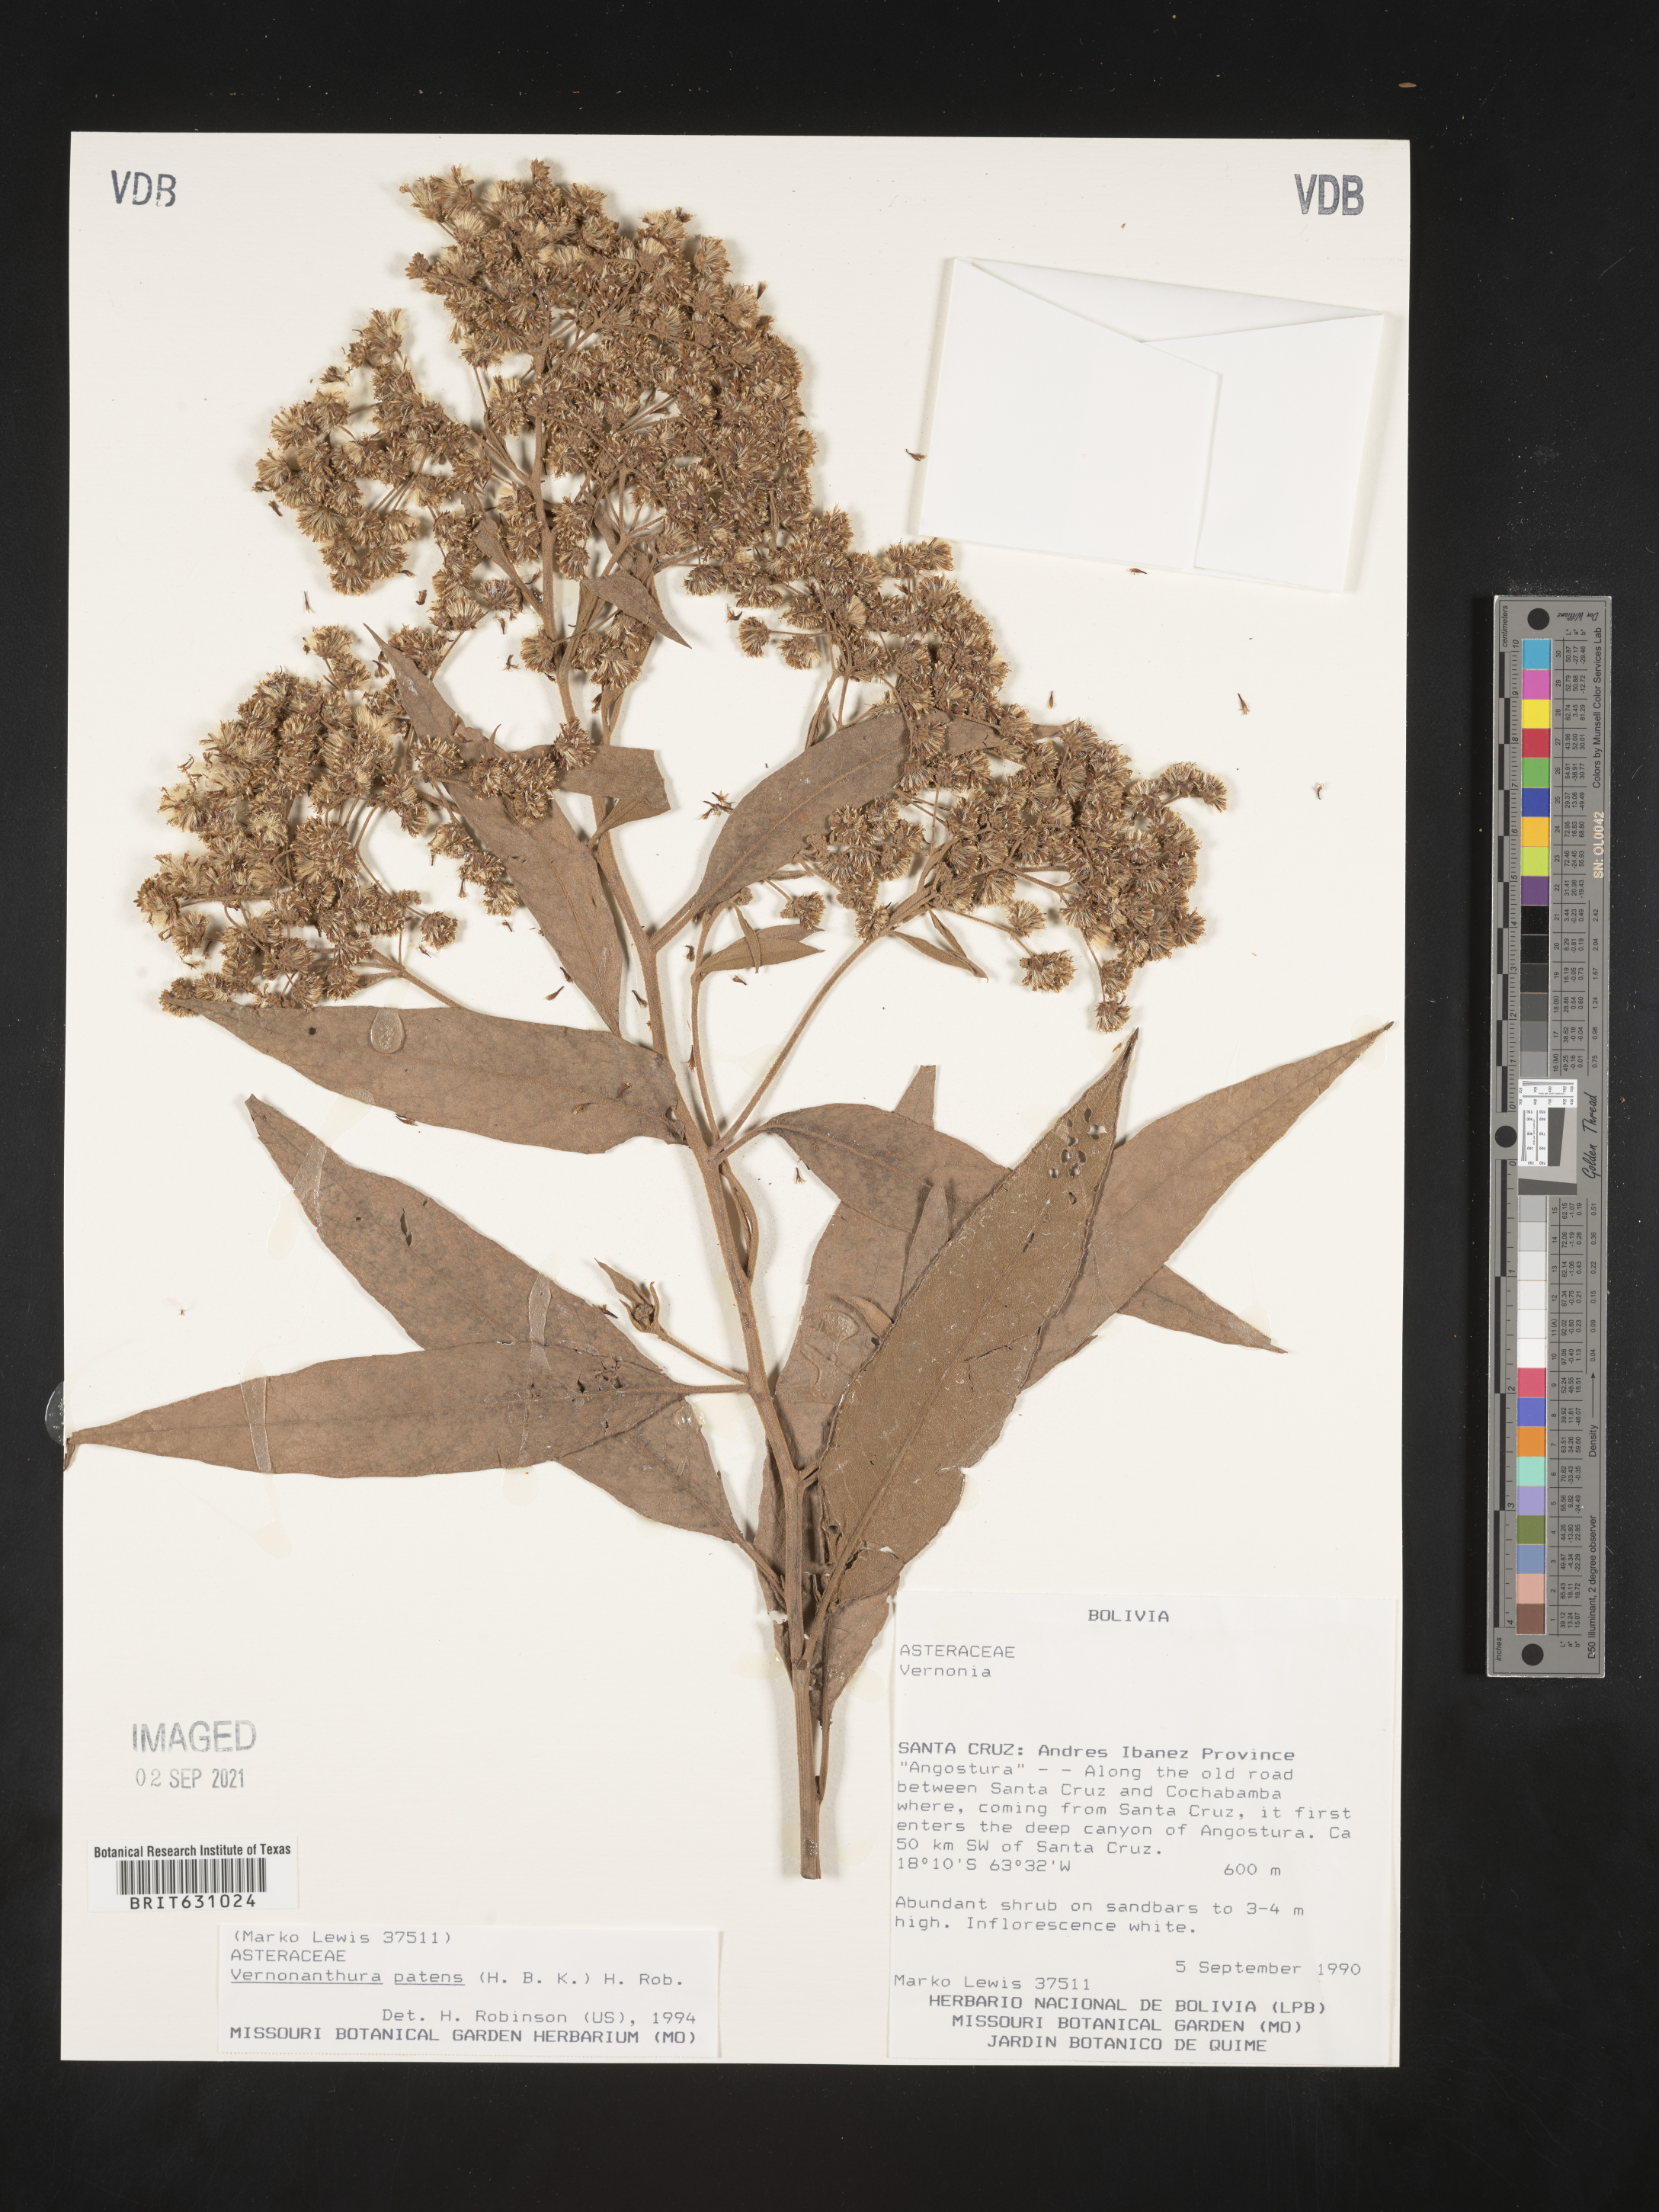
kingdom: Plantae
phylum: Tracheophyta
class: Magnoliopsida
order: Asterales
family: Asteraceae
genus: Vernonanthura
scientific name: Vernonanthura patens
